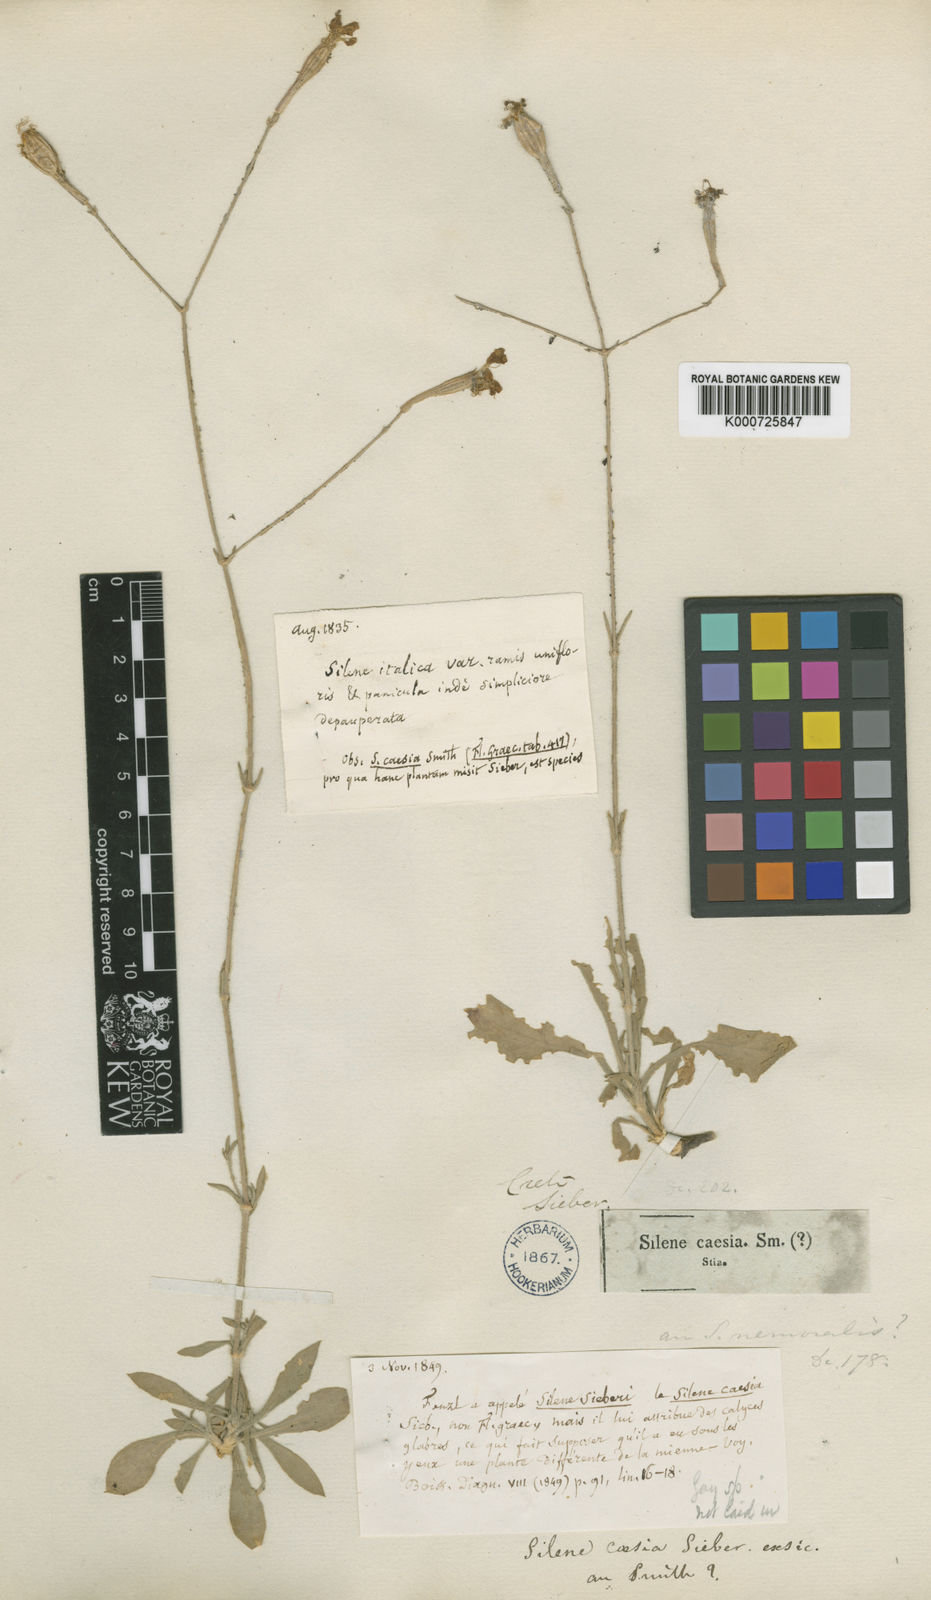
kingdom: Plantae
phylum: Tracheophyta
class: Magnoliopsida
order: Caryophyllales
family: Caryophyllaceae
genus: Silene
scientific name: Silene italica
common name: Italian catchfly
